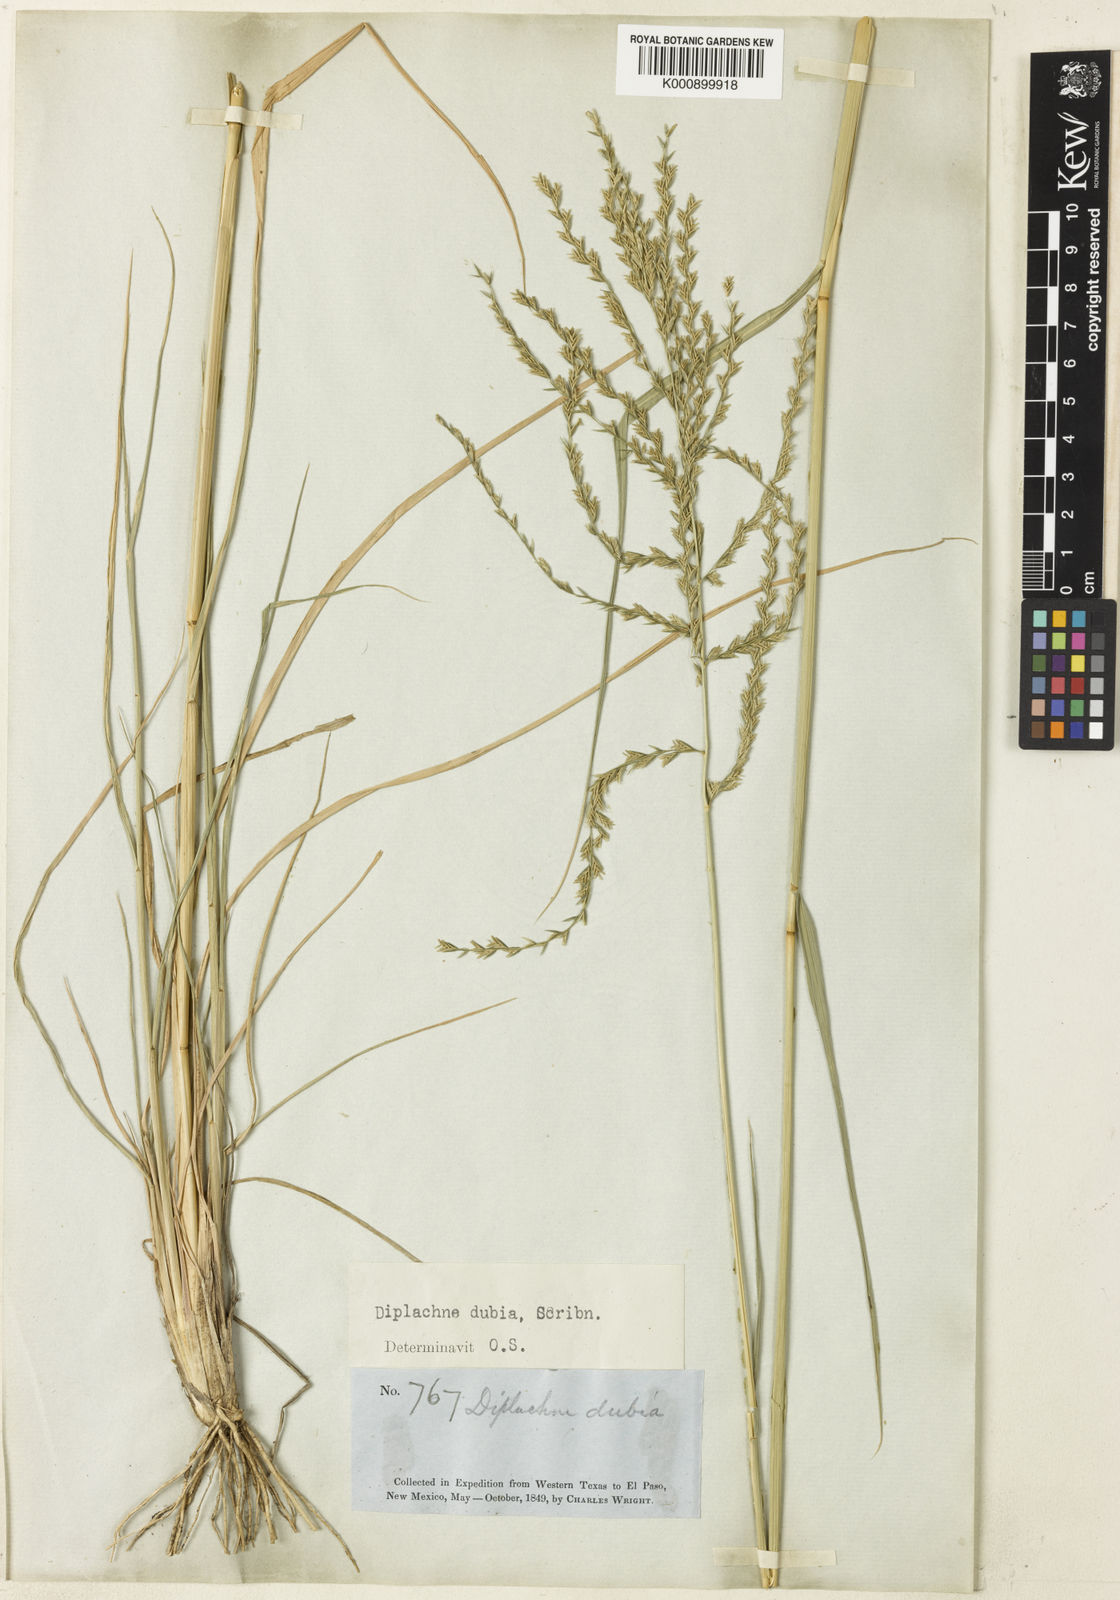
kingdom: Plantae
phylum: Tracheophyta
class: Liliopsida
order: Poales
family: Poaceae
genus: Disakisperma
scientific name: Disakisperma dubium
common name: Green sprangletop
